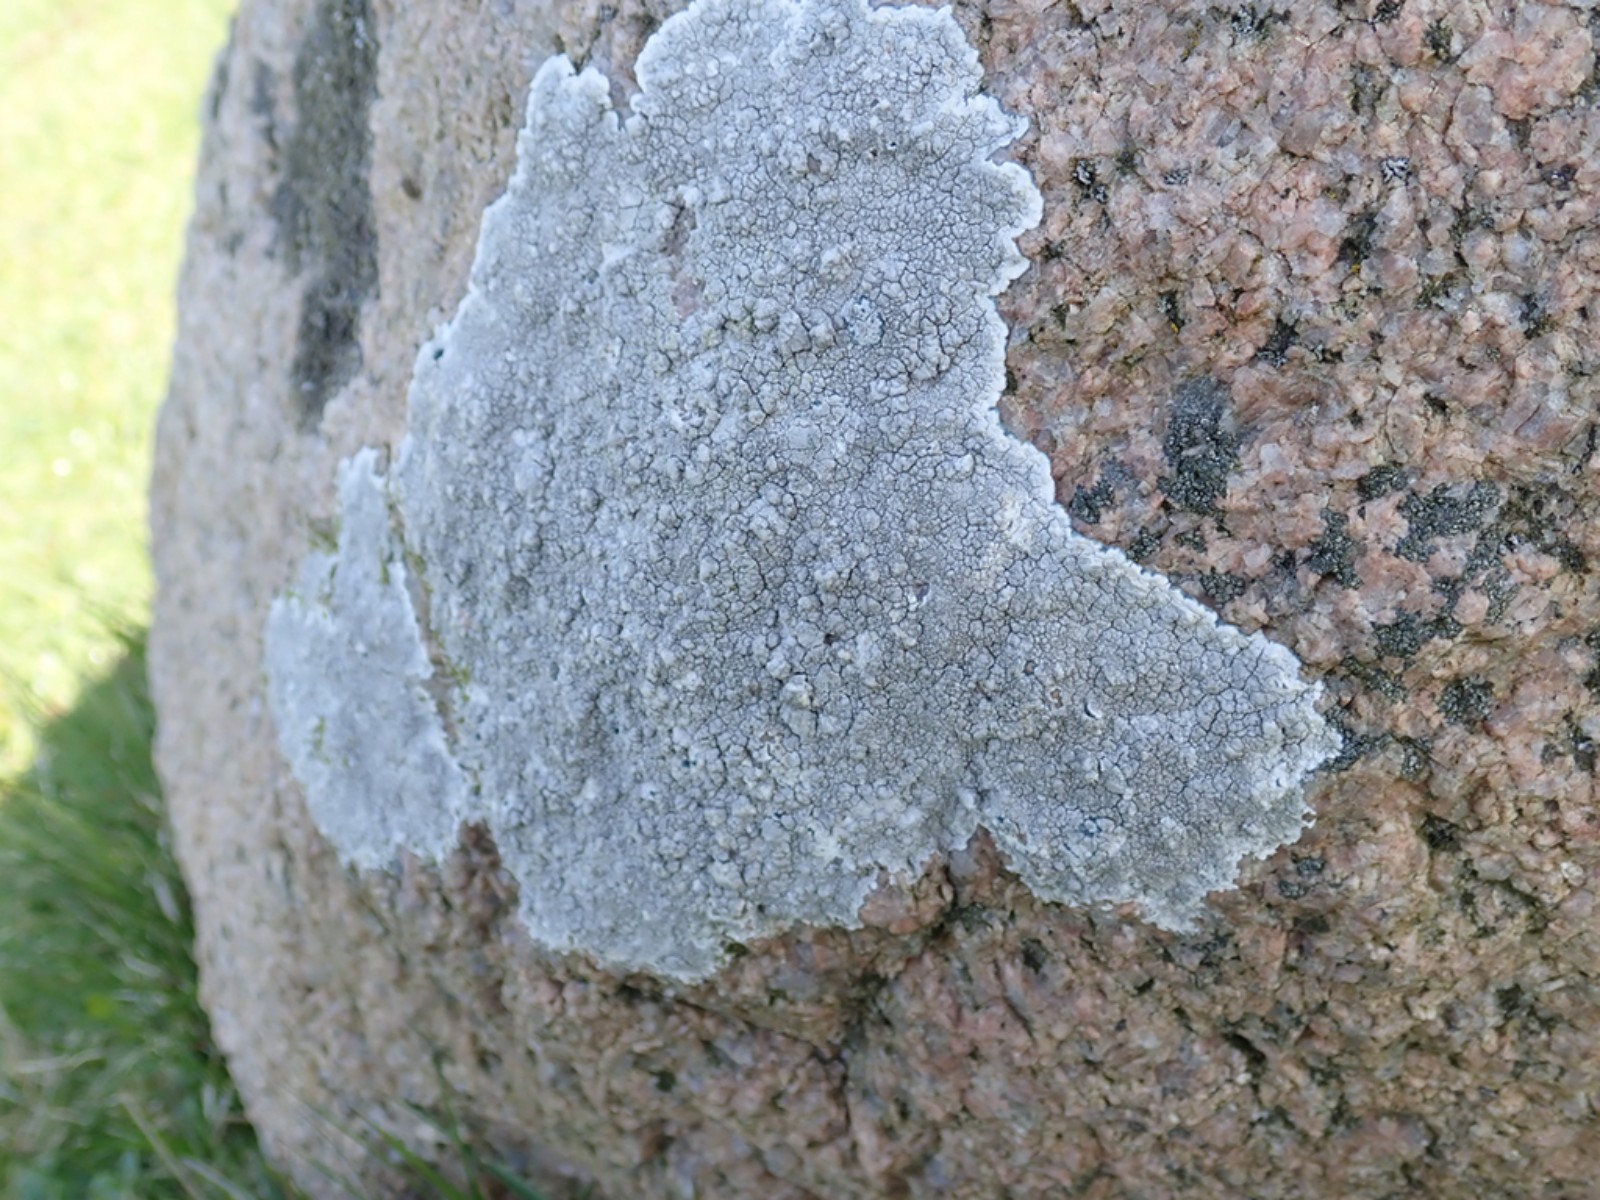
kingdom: Fungi
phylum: Ascomycota
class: Lecanoromycetes
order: Lecanorales
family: Lecanoraceae
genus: Glaucomaria
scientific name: Glaucomaria rupicola
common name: stengærde-kantskivelav
